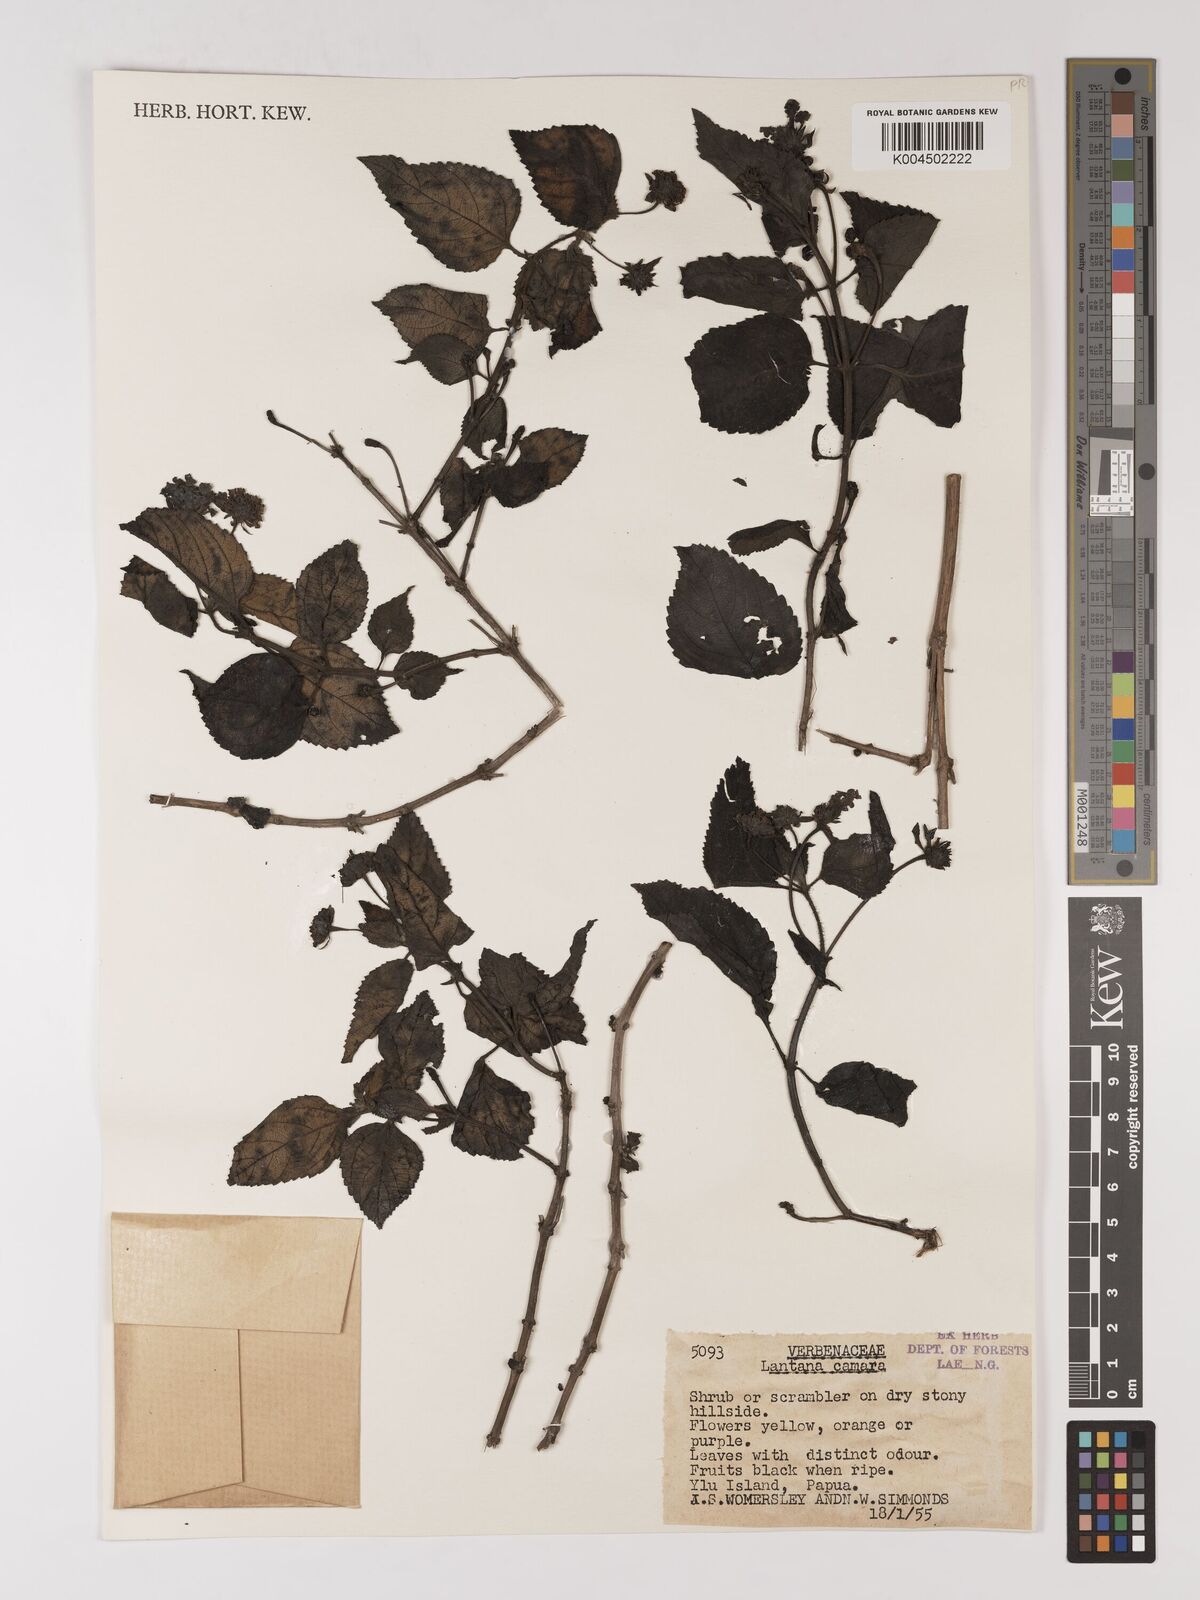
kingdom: Plantae
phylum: Tracheophyta
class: Magnoliopsida
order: Lamiales
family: Verbenaceae
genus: Lantana
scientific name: Lantana camara
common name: Lantana
